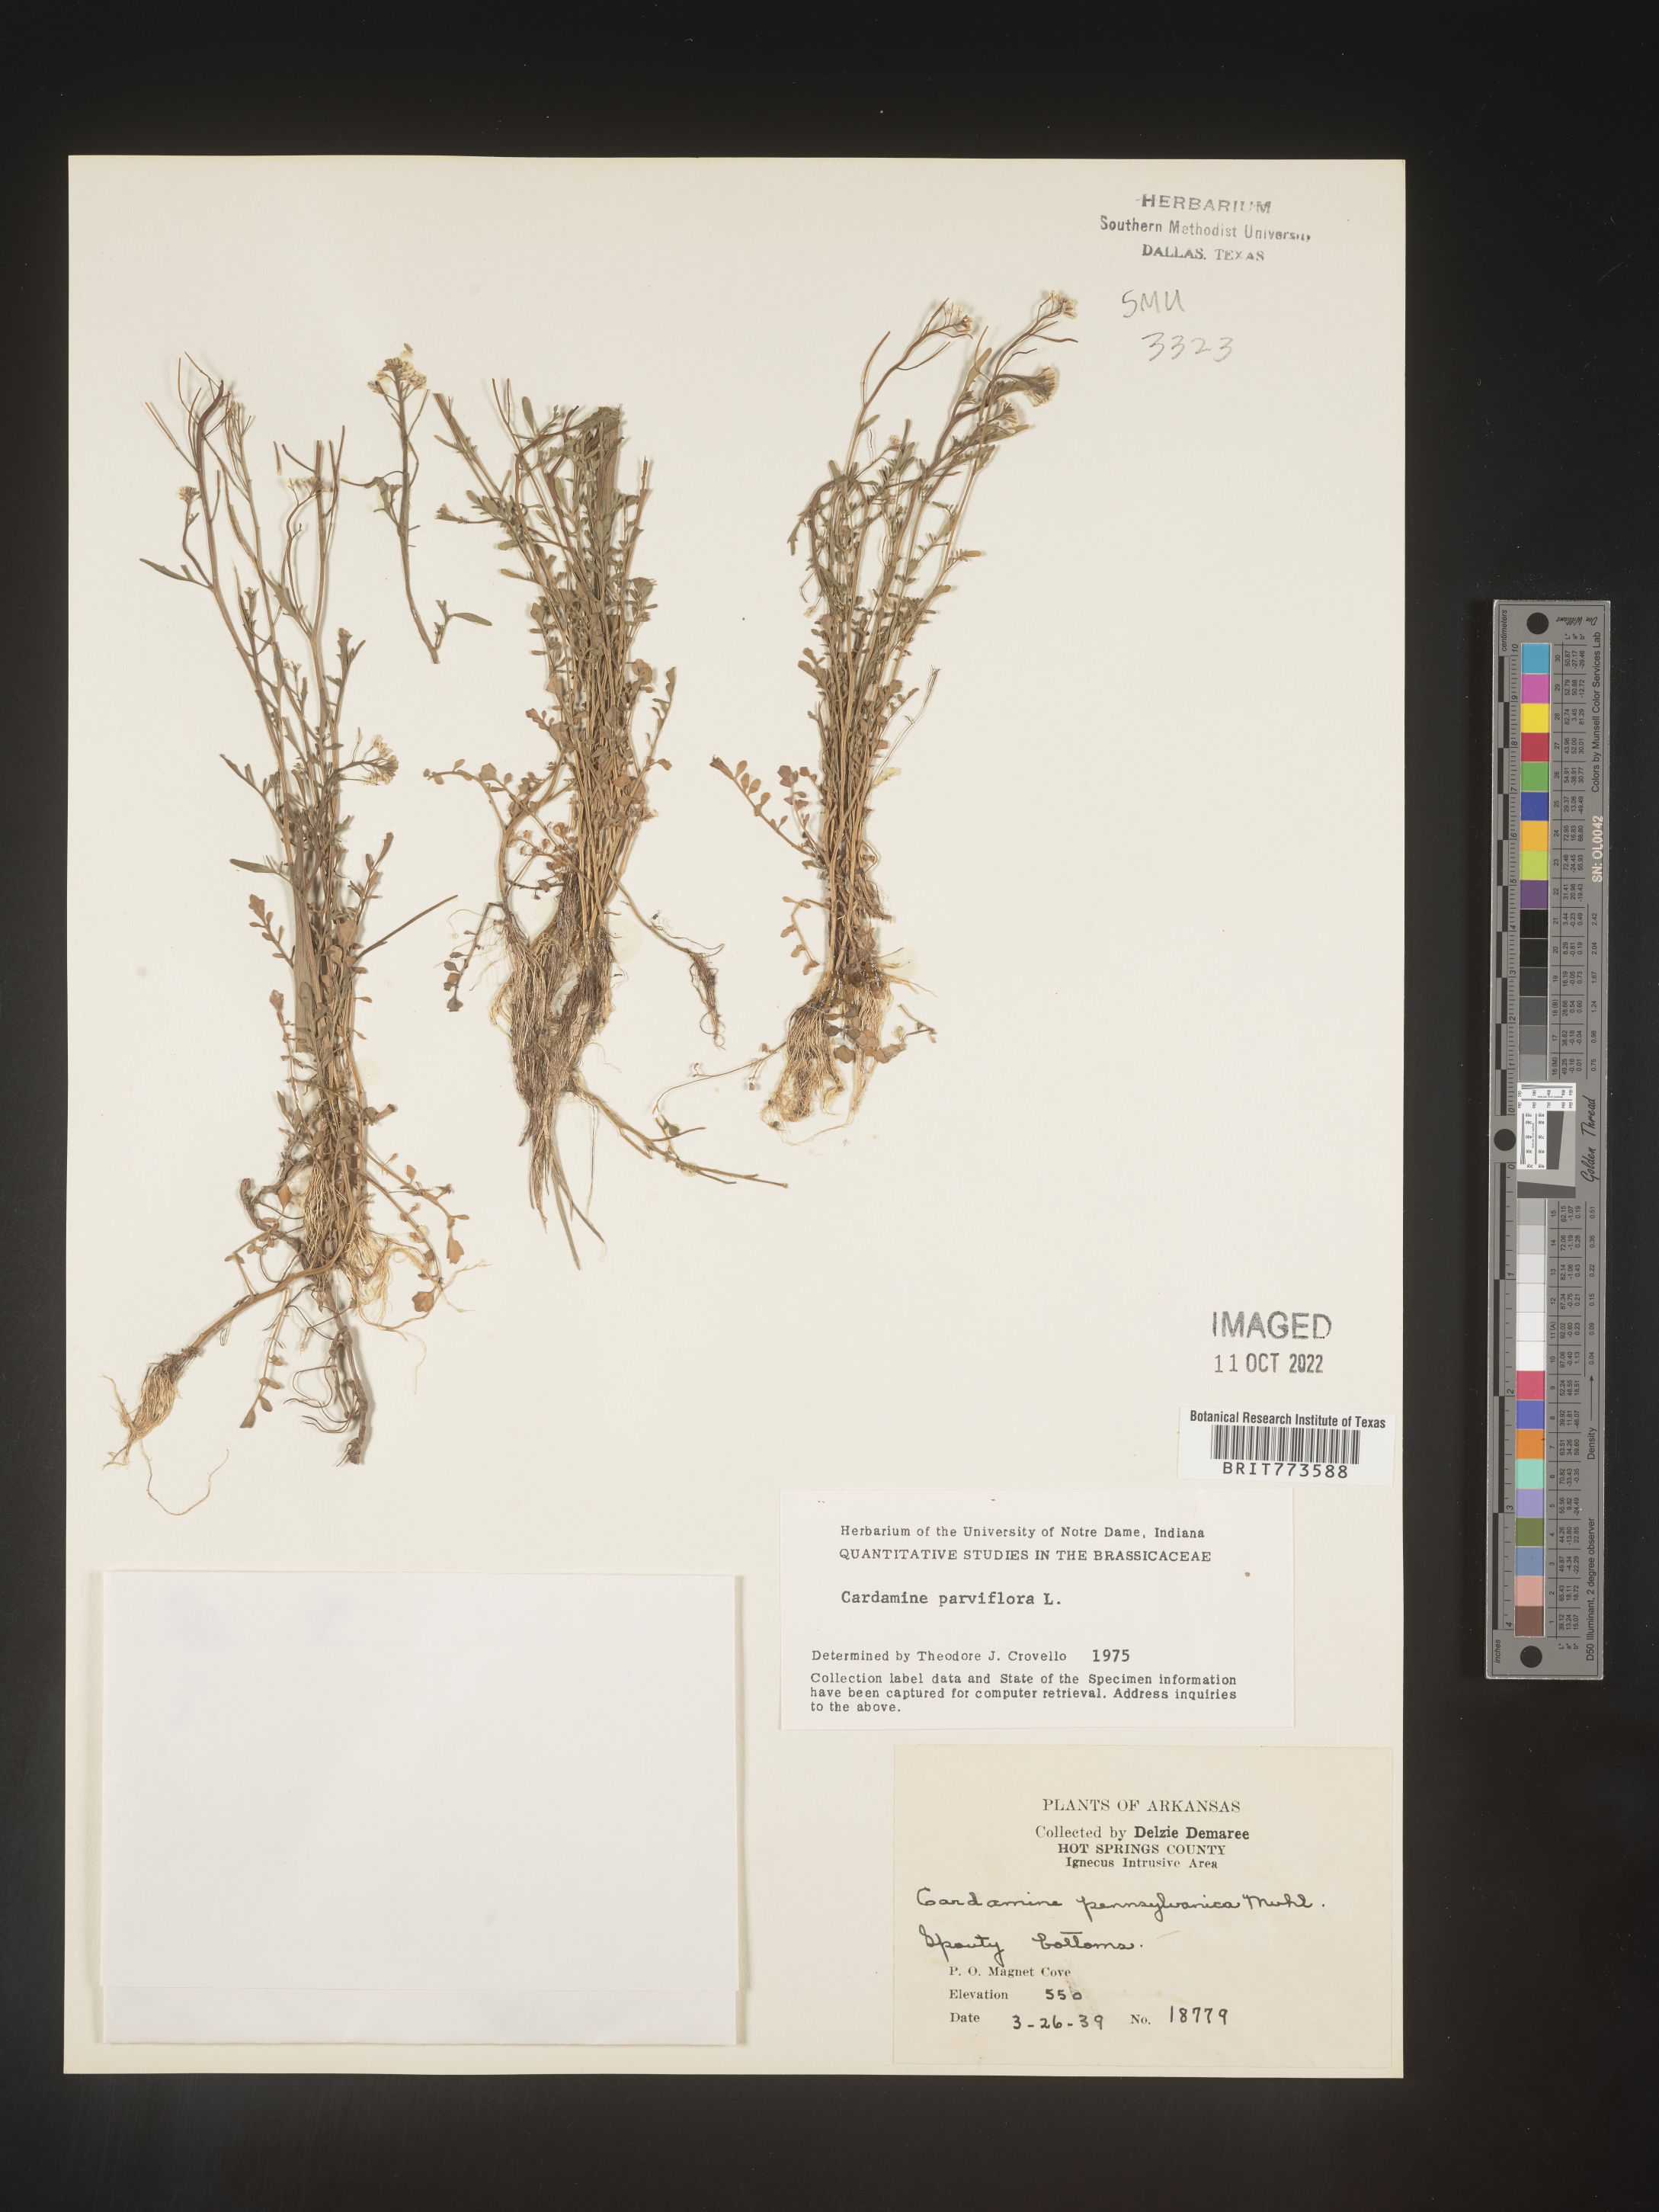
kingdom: Plantae
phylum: Tracheophyta
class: Magnoliopsida
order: Brassicales
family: Brassicaceae
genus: Cardamine
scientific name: Cardamine parviflora
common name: Sand bittercress
